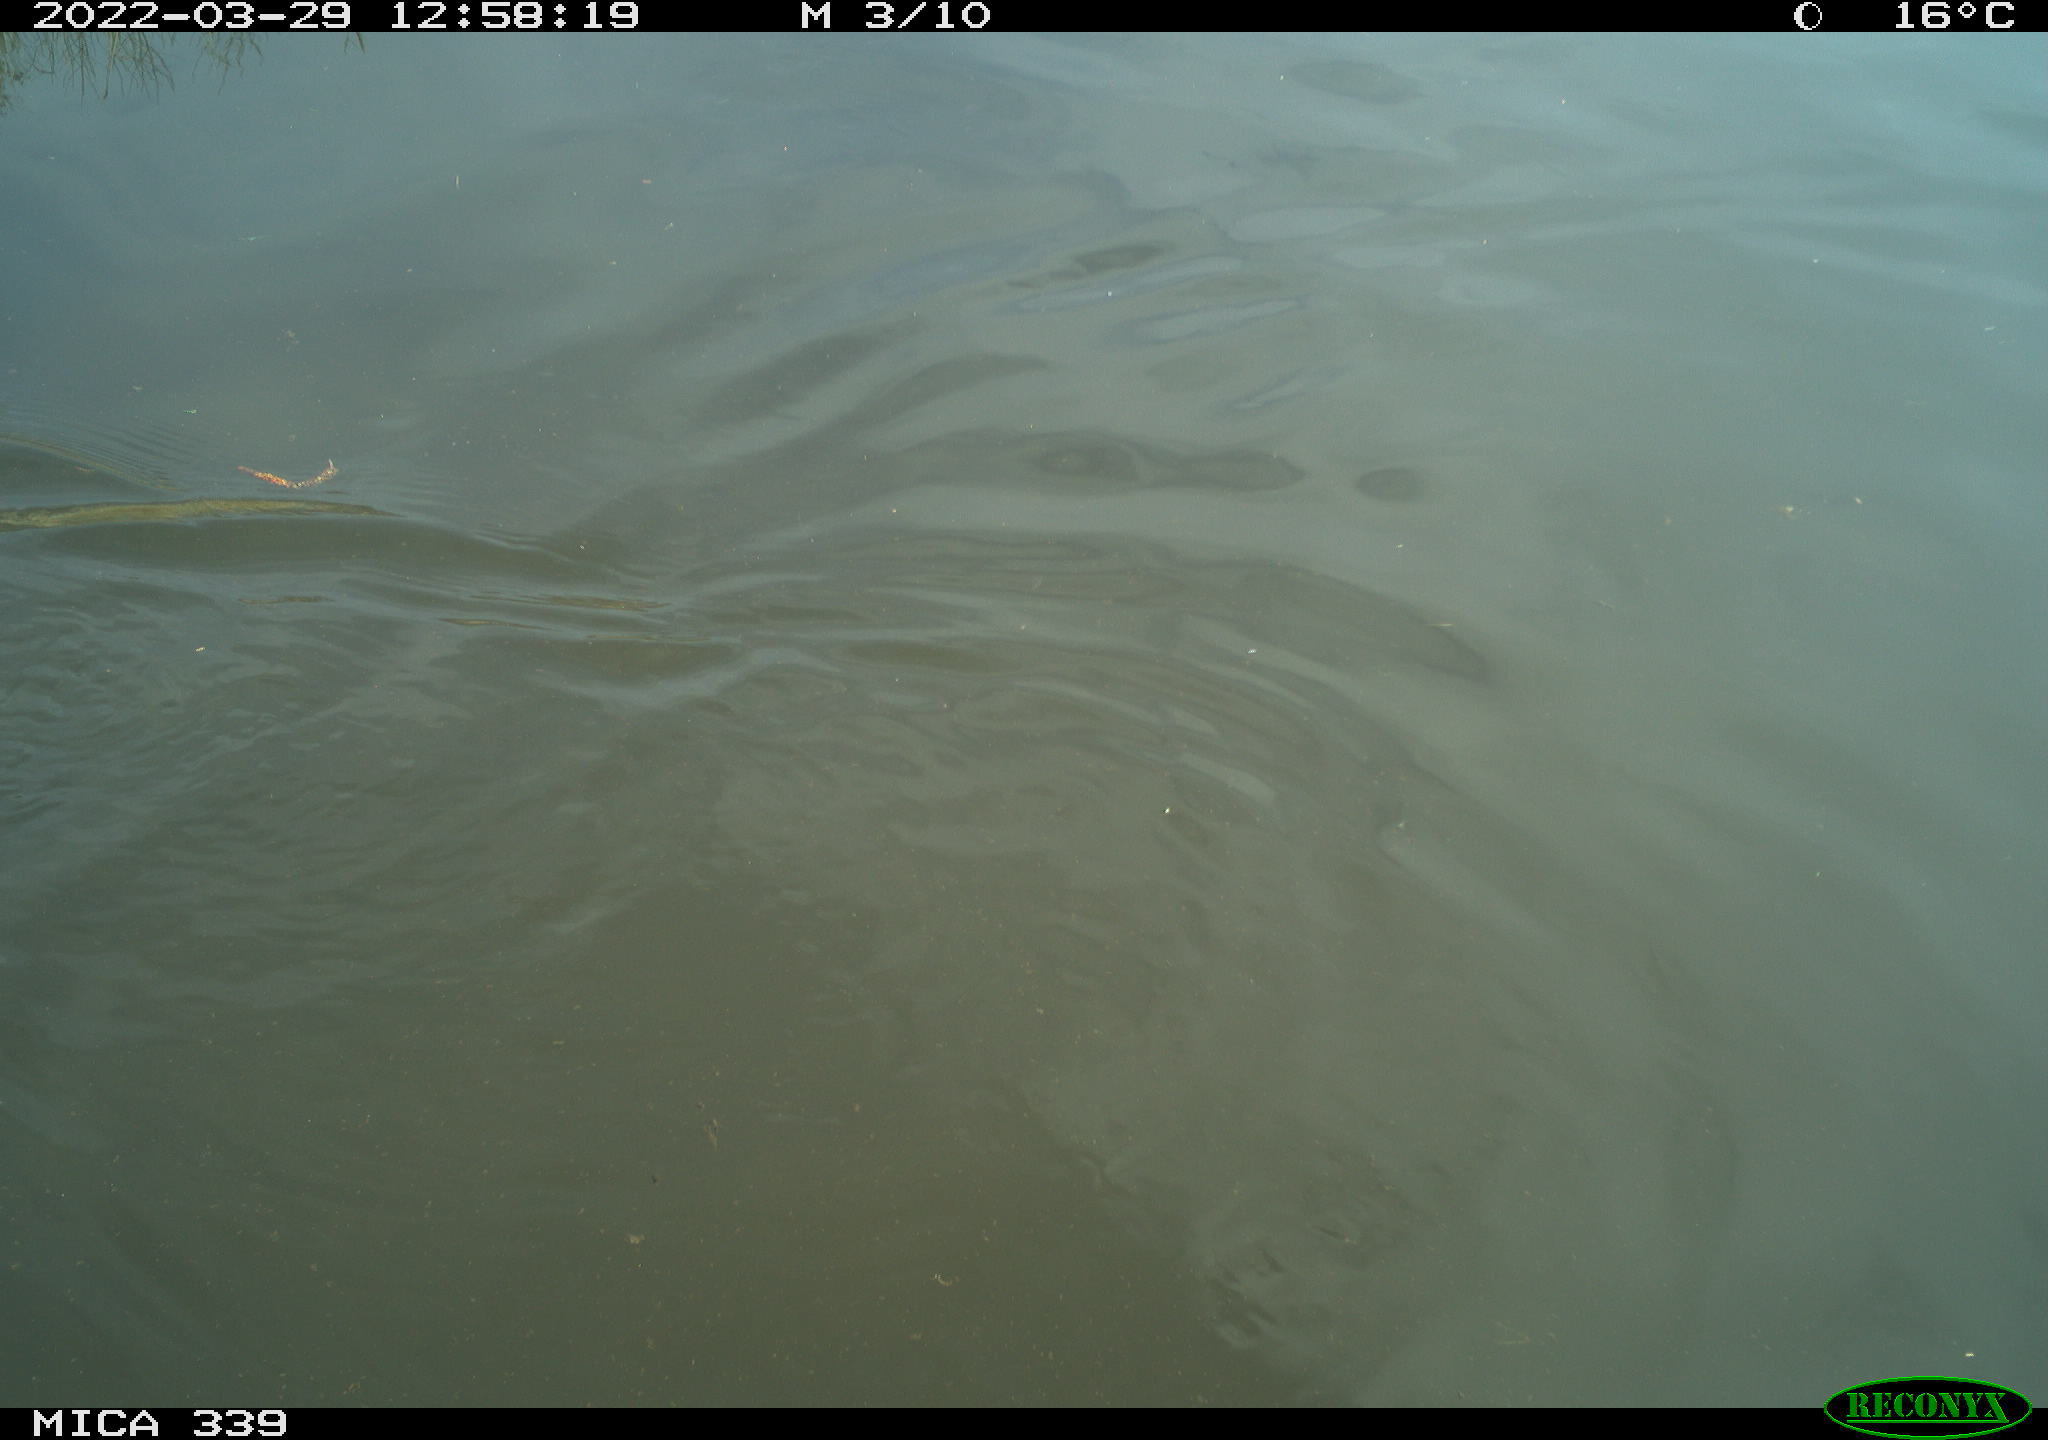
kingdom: Animalia
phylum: Chordata
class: Aves
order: Anseriformes
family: Anatidae
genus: Anas
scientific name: Anas platyrhynchos
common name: Mallard
